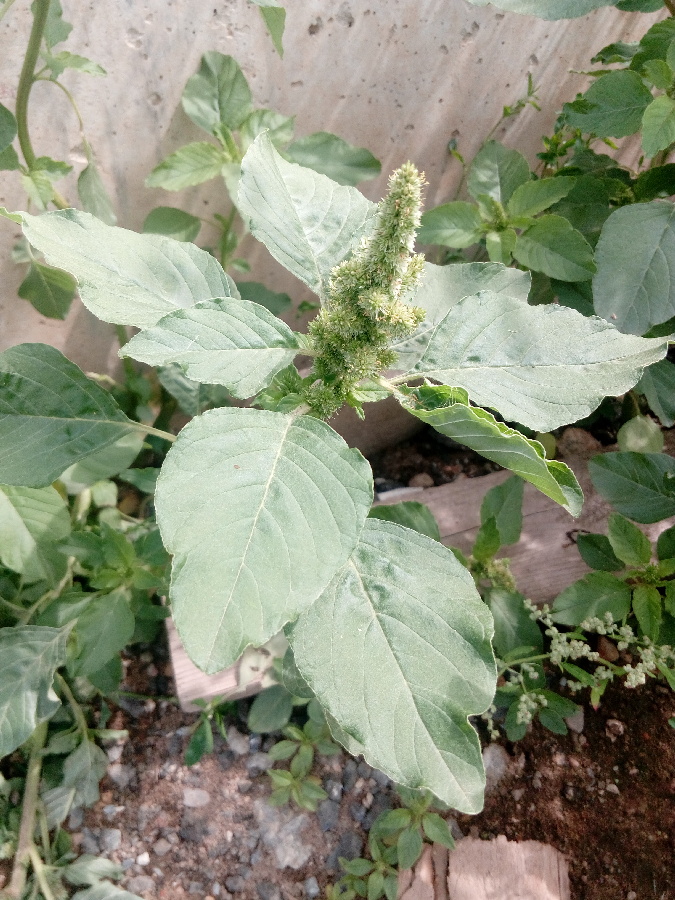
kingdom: Plantae
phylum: Tracheophyta
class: Magnoliopsida
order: Caryophyllales
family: Amaranthaceae
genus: Amaranthus
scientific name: Amaranthus retroflexus
